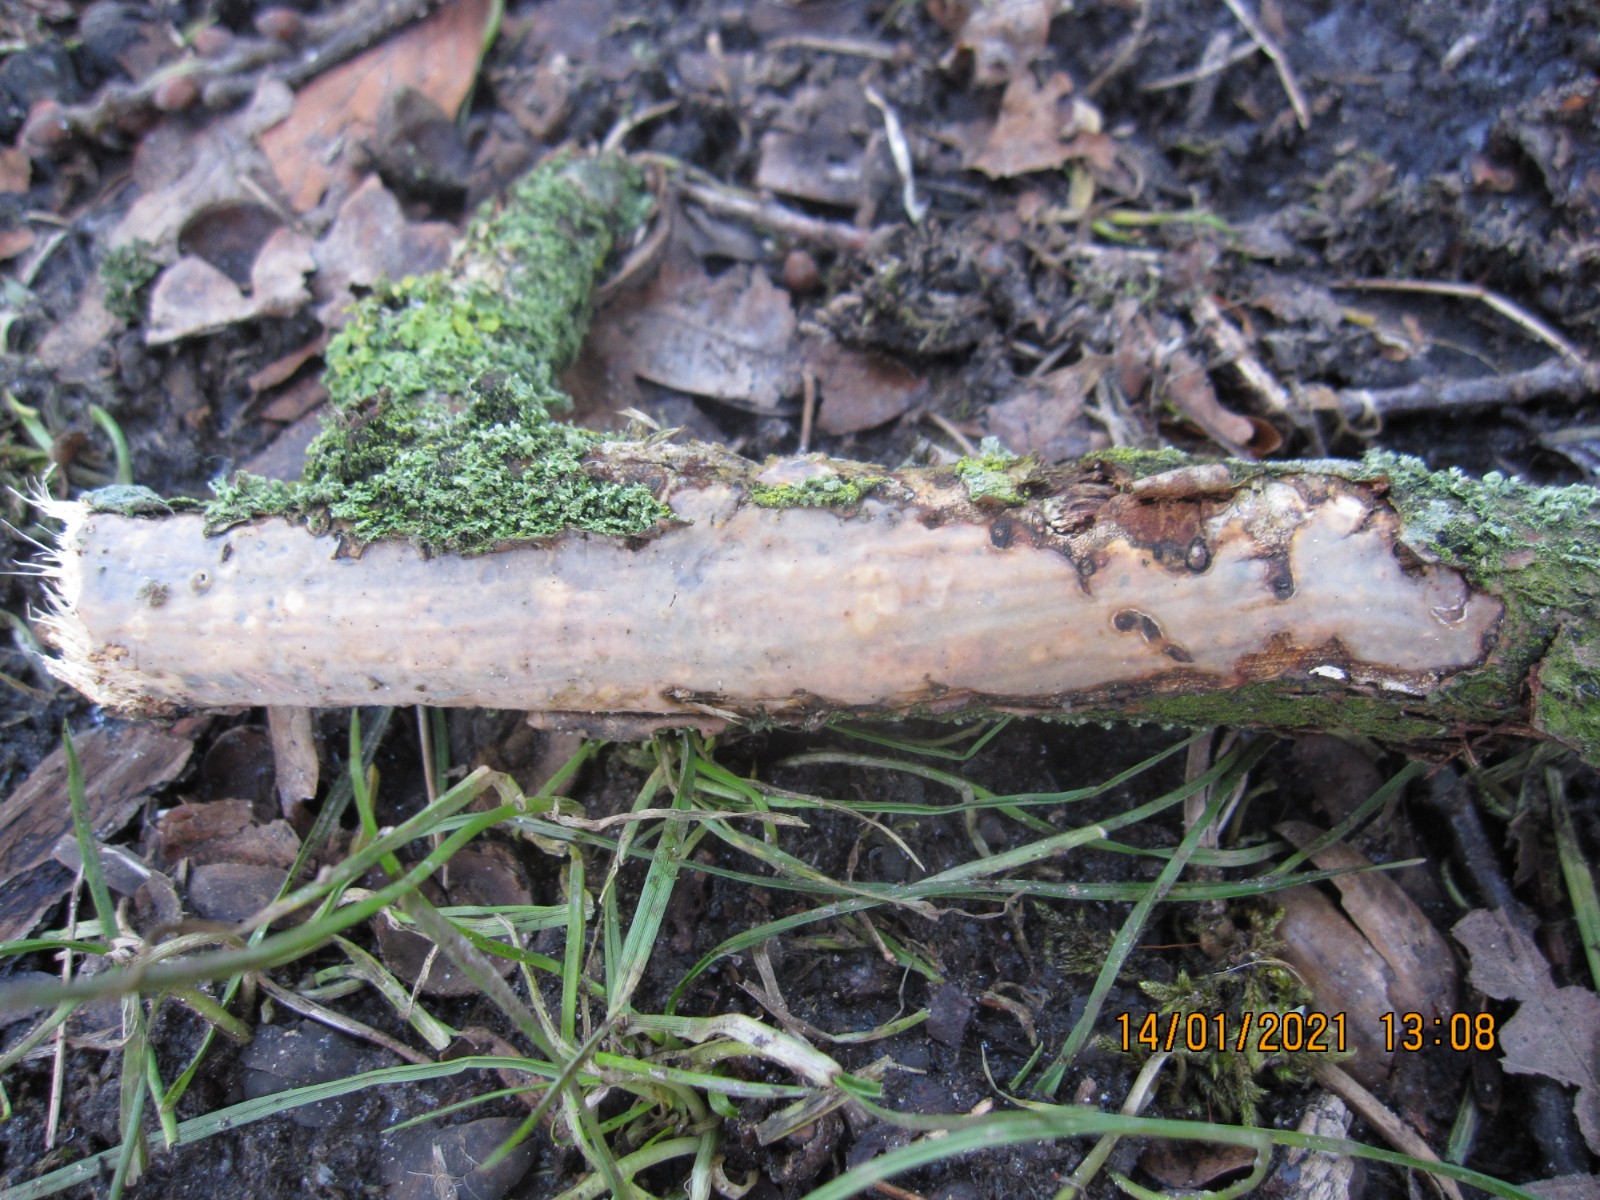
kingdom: Fungi
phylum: Basidiomycota
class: Agaricomycetes
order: Corticiales
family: Vuilleminiaceae
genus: Vuilleminia
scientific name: Vuilleminia comedens
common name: almindelig barksprænger
